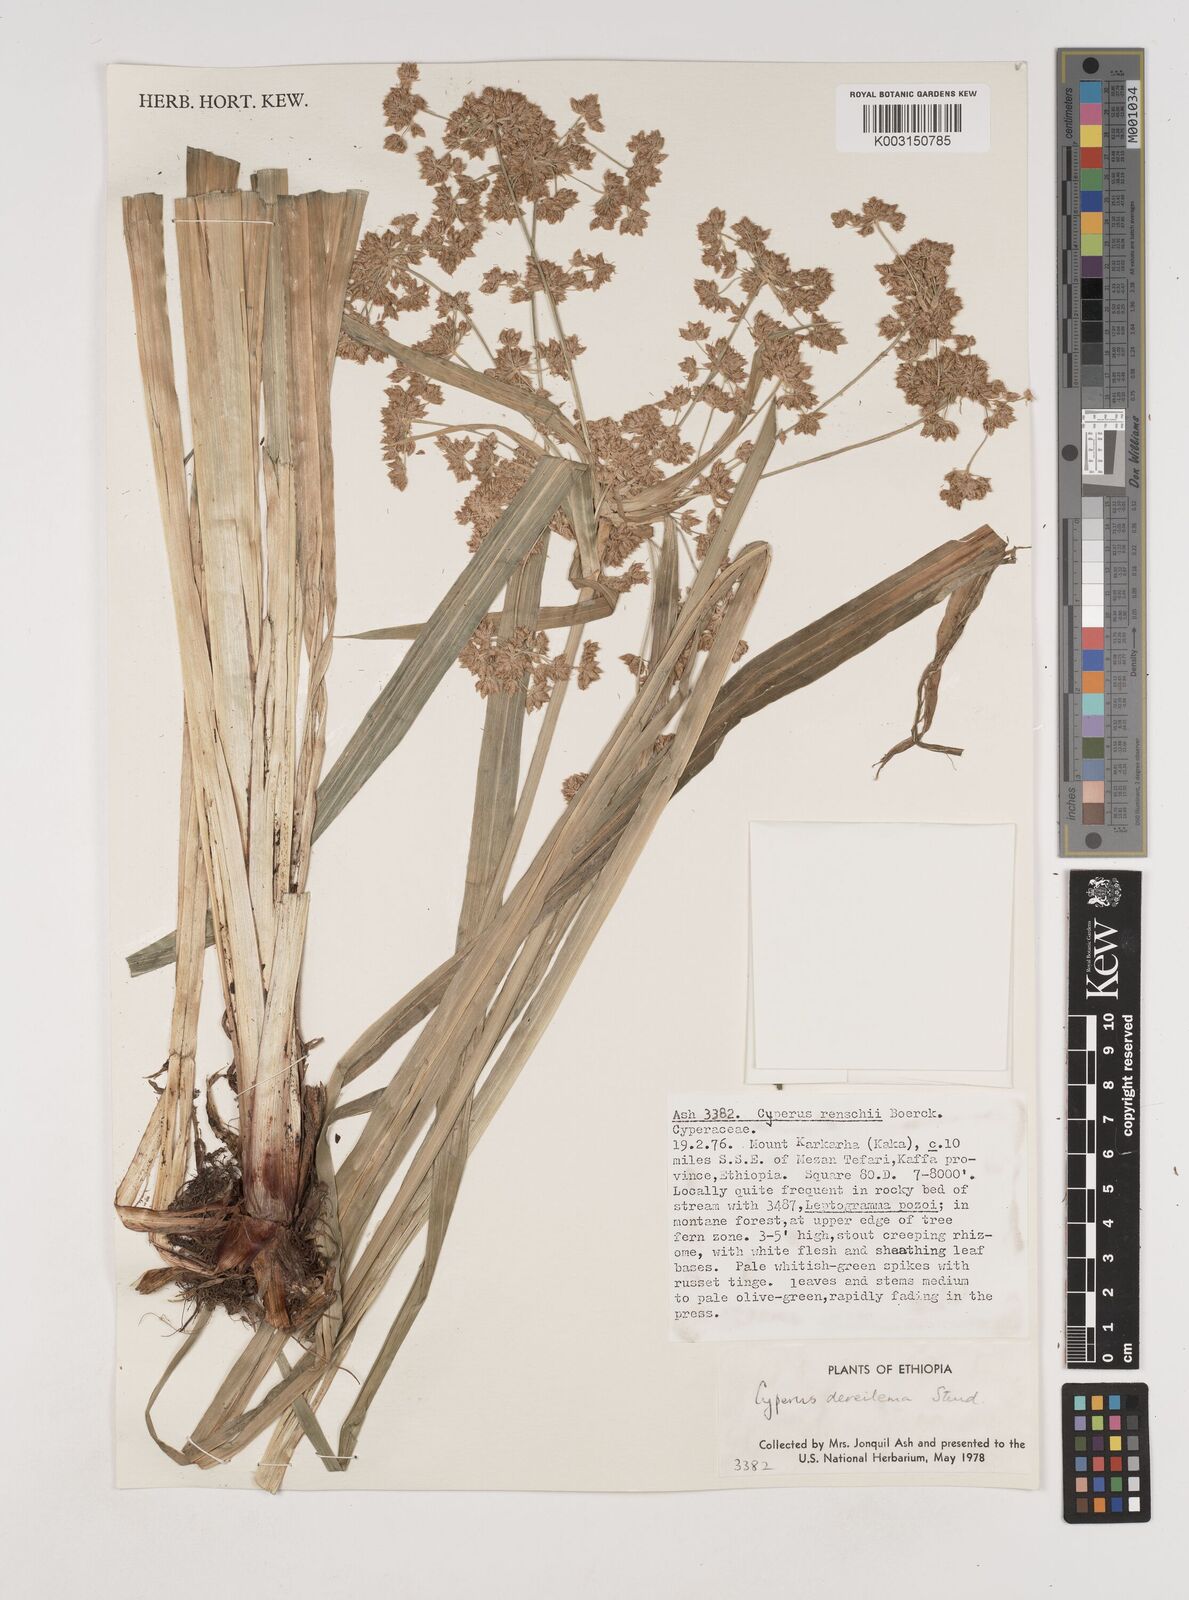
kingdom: Plantae
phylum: Tracheophyta
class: Liliopsida
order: Poales
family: Cyperaceae
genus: Cyperus
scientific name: Cyperus derreilema
